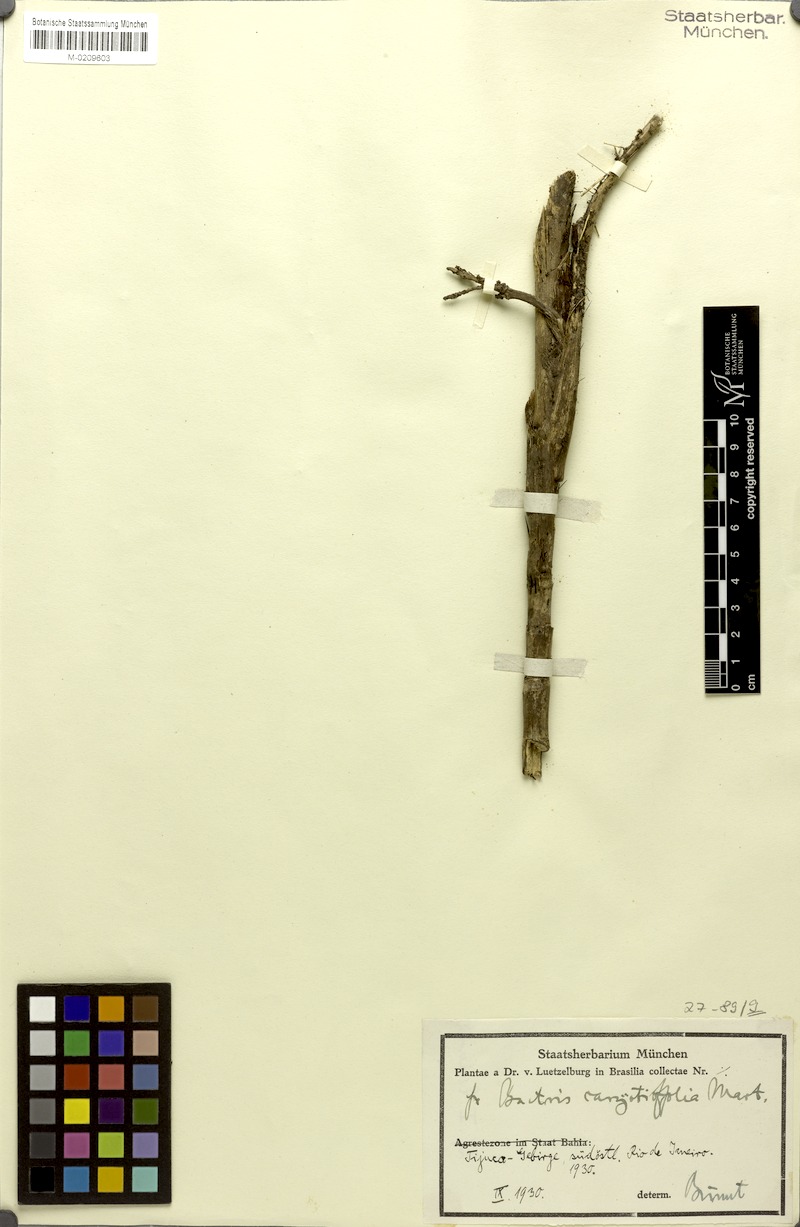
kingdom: Plantae
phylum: Tracheophyta
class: Liliopsida
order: Arecales
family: Arecaceae
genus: Bactris
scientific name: Bactris caryotifolia
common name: Caryota-leaf peach palm
